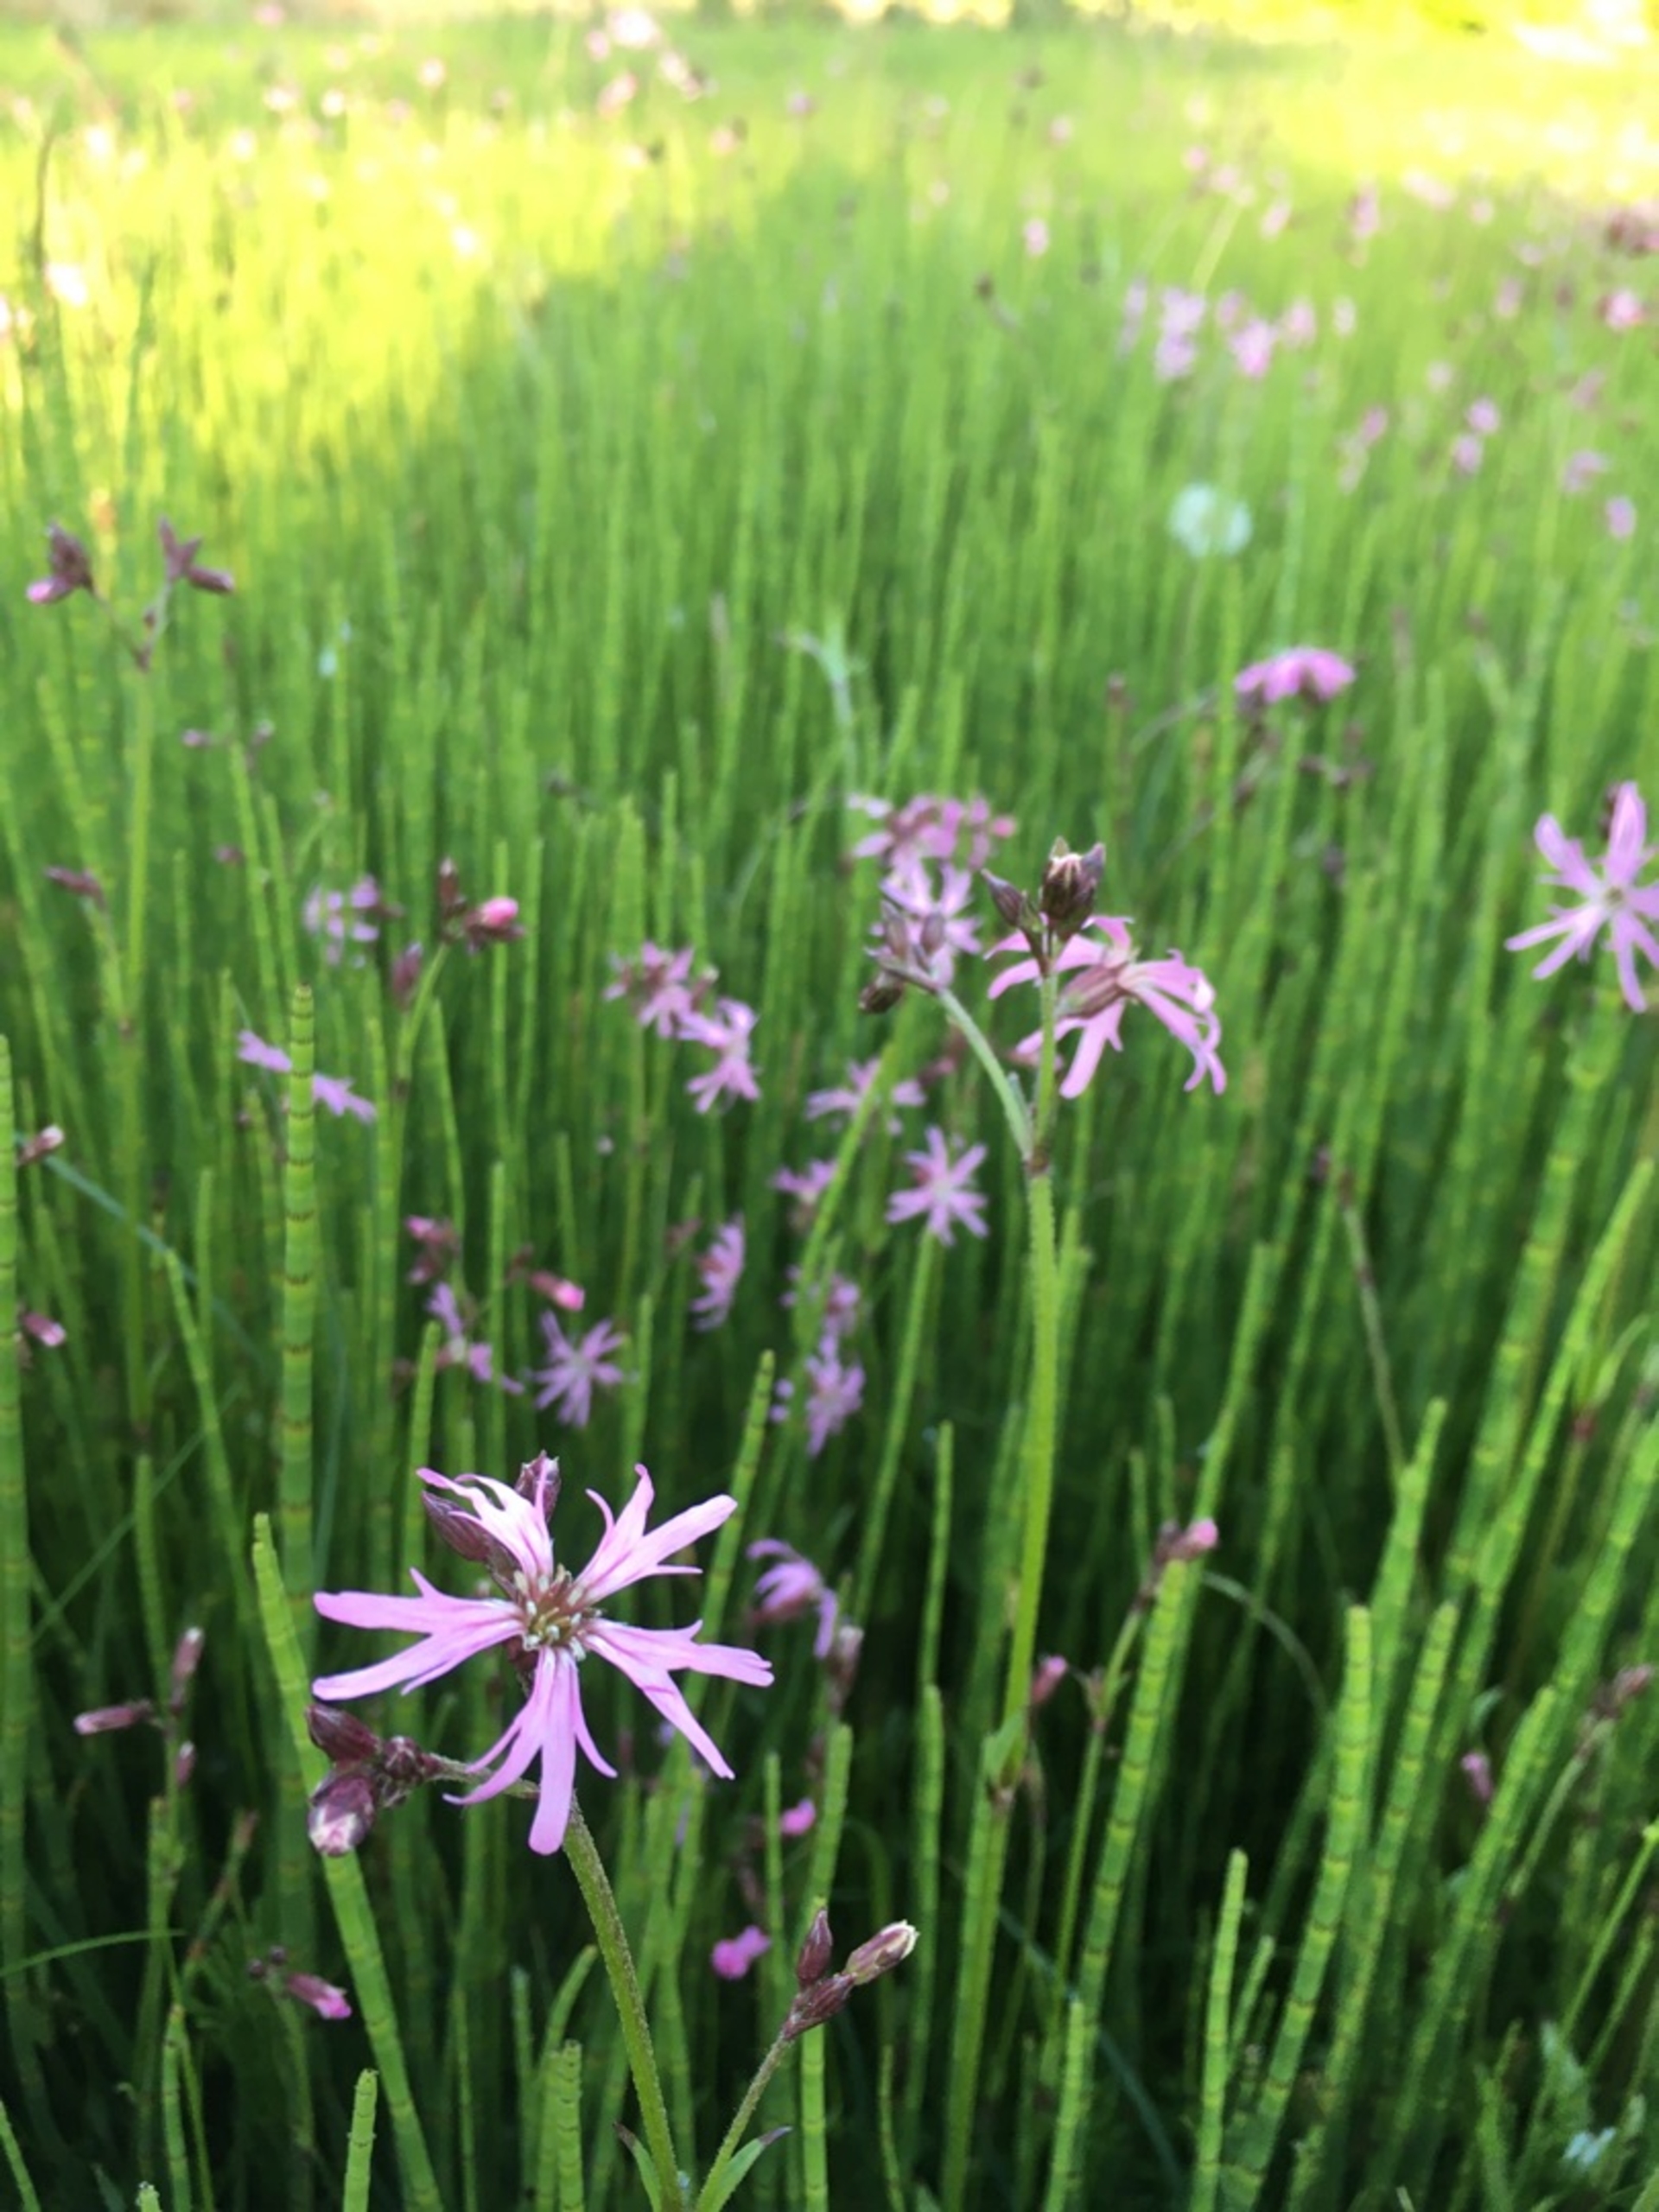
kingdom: Plantae
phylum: Tracheophyta
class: Magnoliopsida
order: Caryophyllales
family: Caryophyllaceae
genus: Silene
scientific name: Silene flos-cuculi
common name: Trævlekrone
